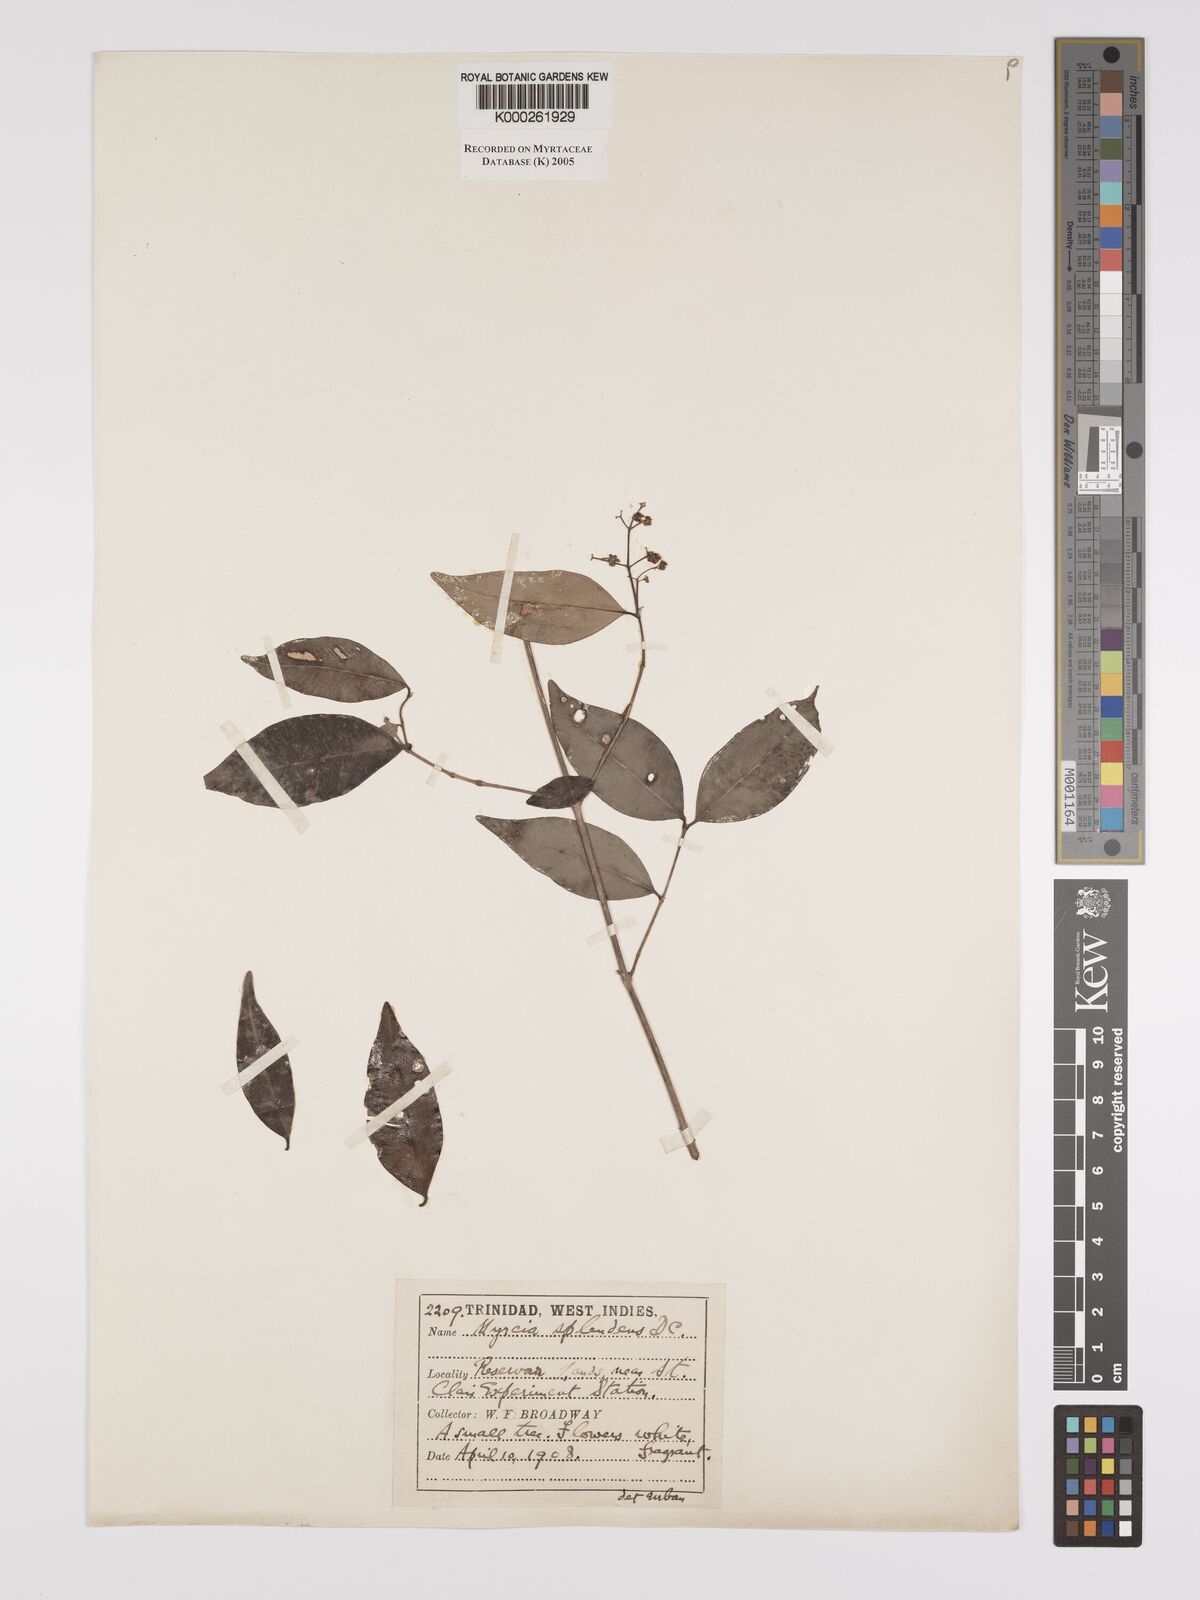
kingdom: Plantae
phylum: Tracheophyta
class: Magnoliopsida
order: Myrtales
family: Myrtaceae
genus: Myrcia
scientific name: Myrcia splendens
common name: Surinam cherry
